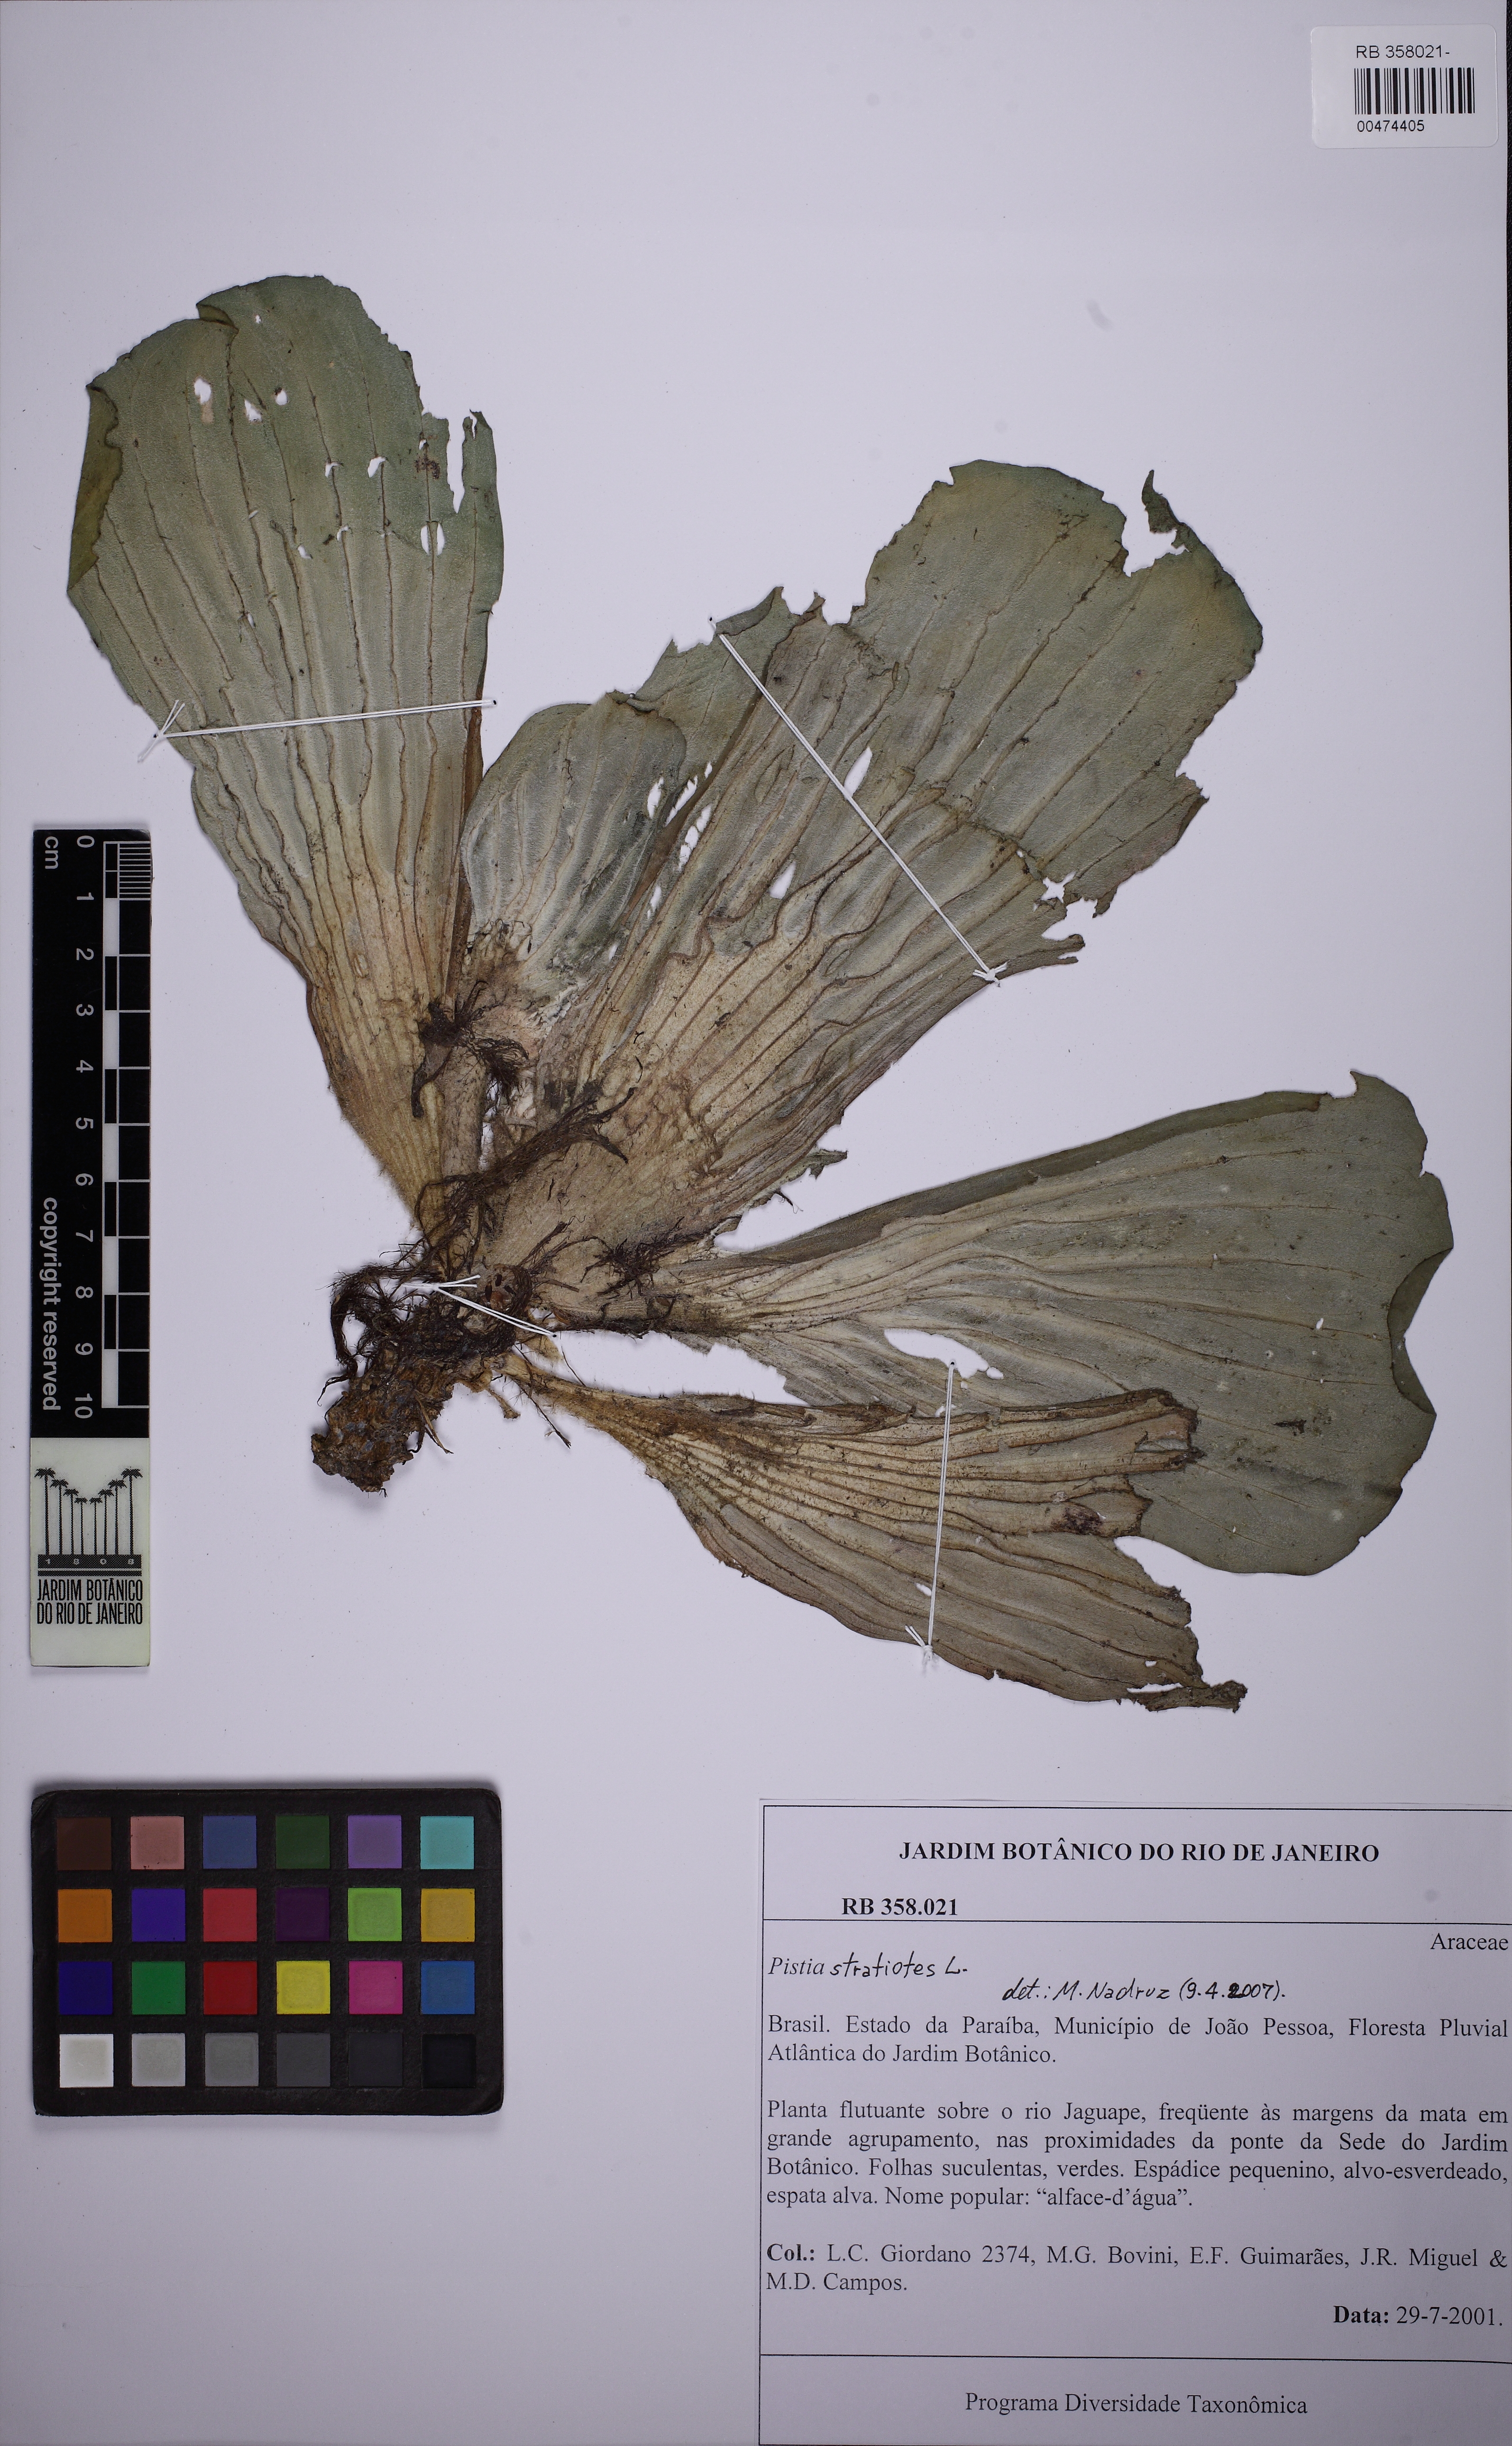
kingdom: Plantae
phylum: Tracheophyta
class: Liliopsida
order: Alismatales
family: Araceae
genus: Pistia
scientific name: Pistia stratiotes
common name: Water lettuce
